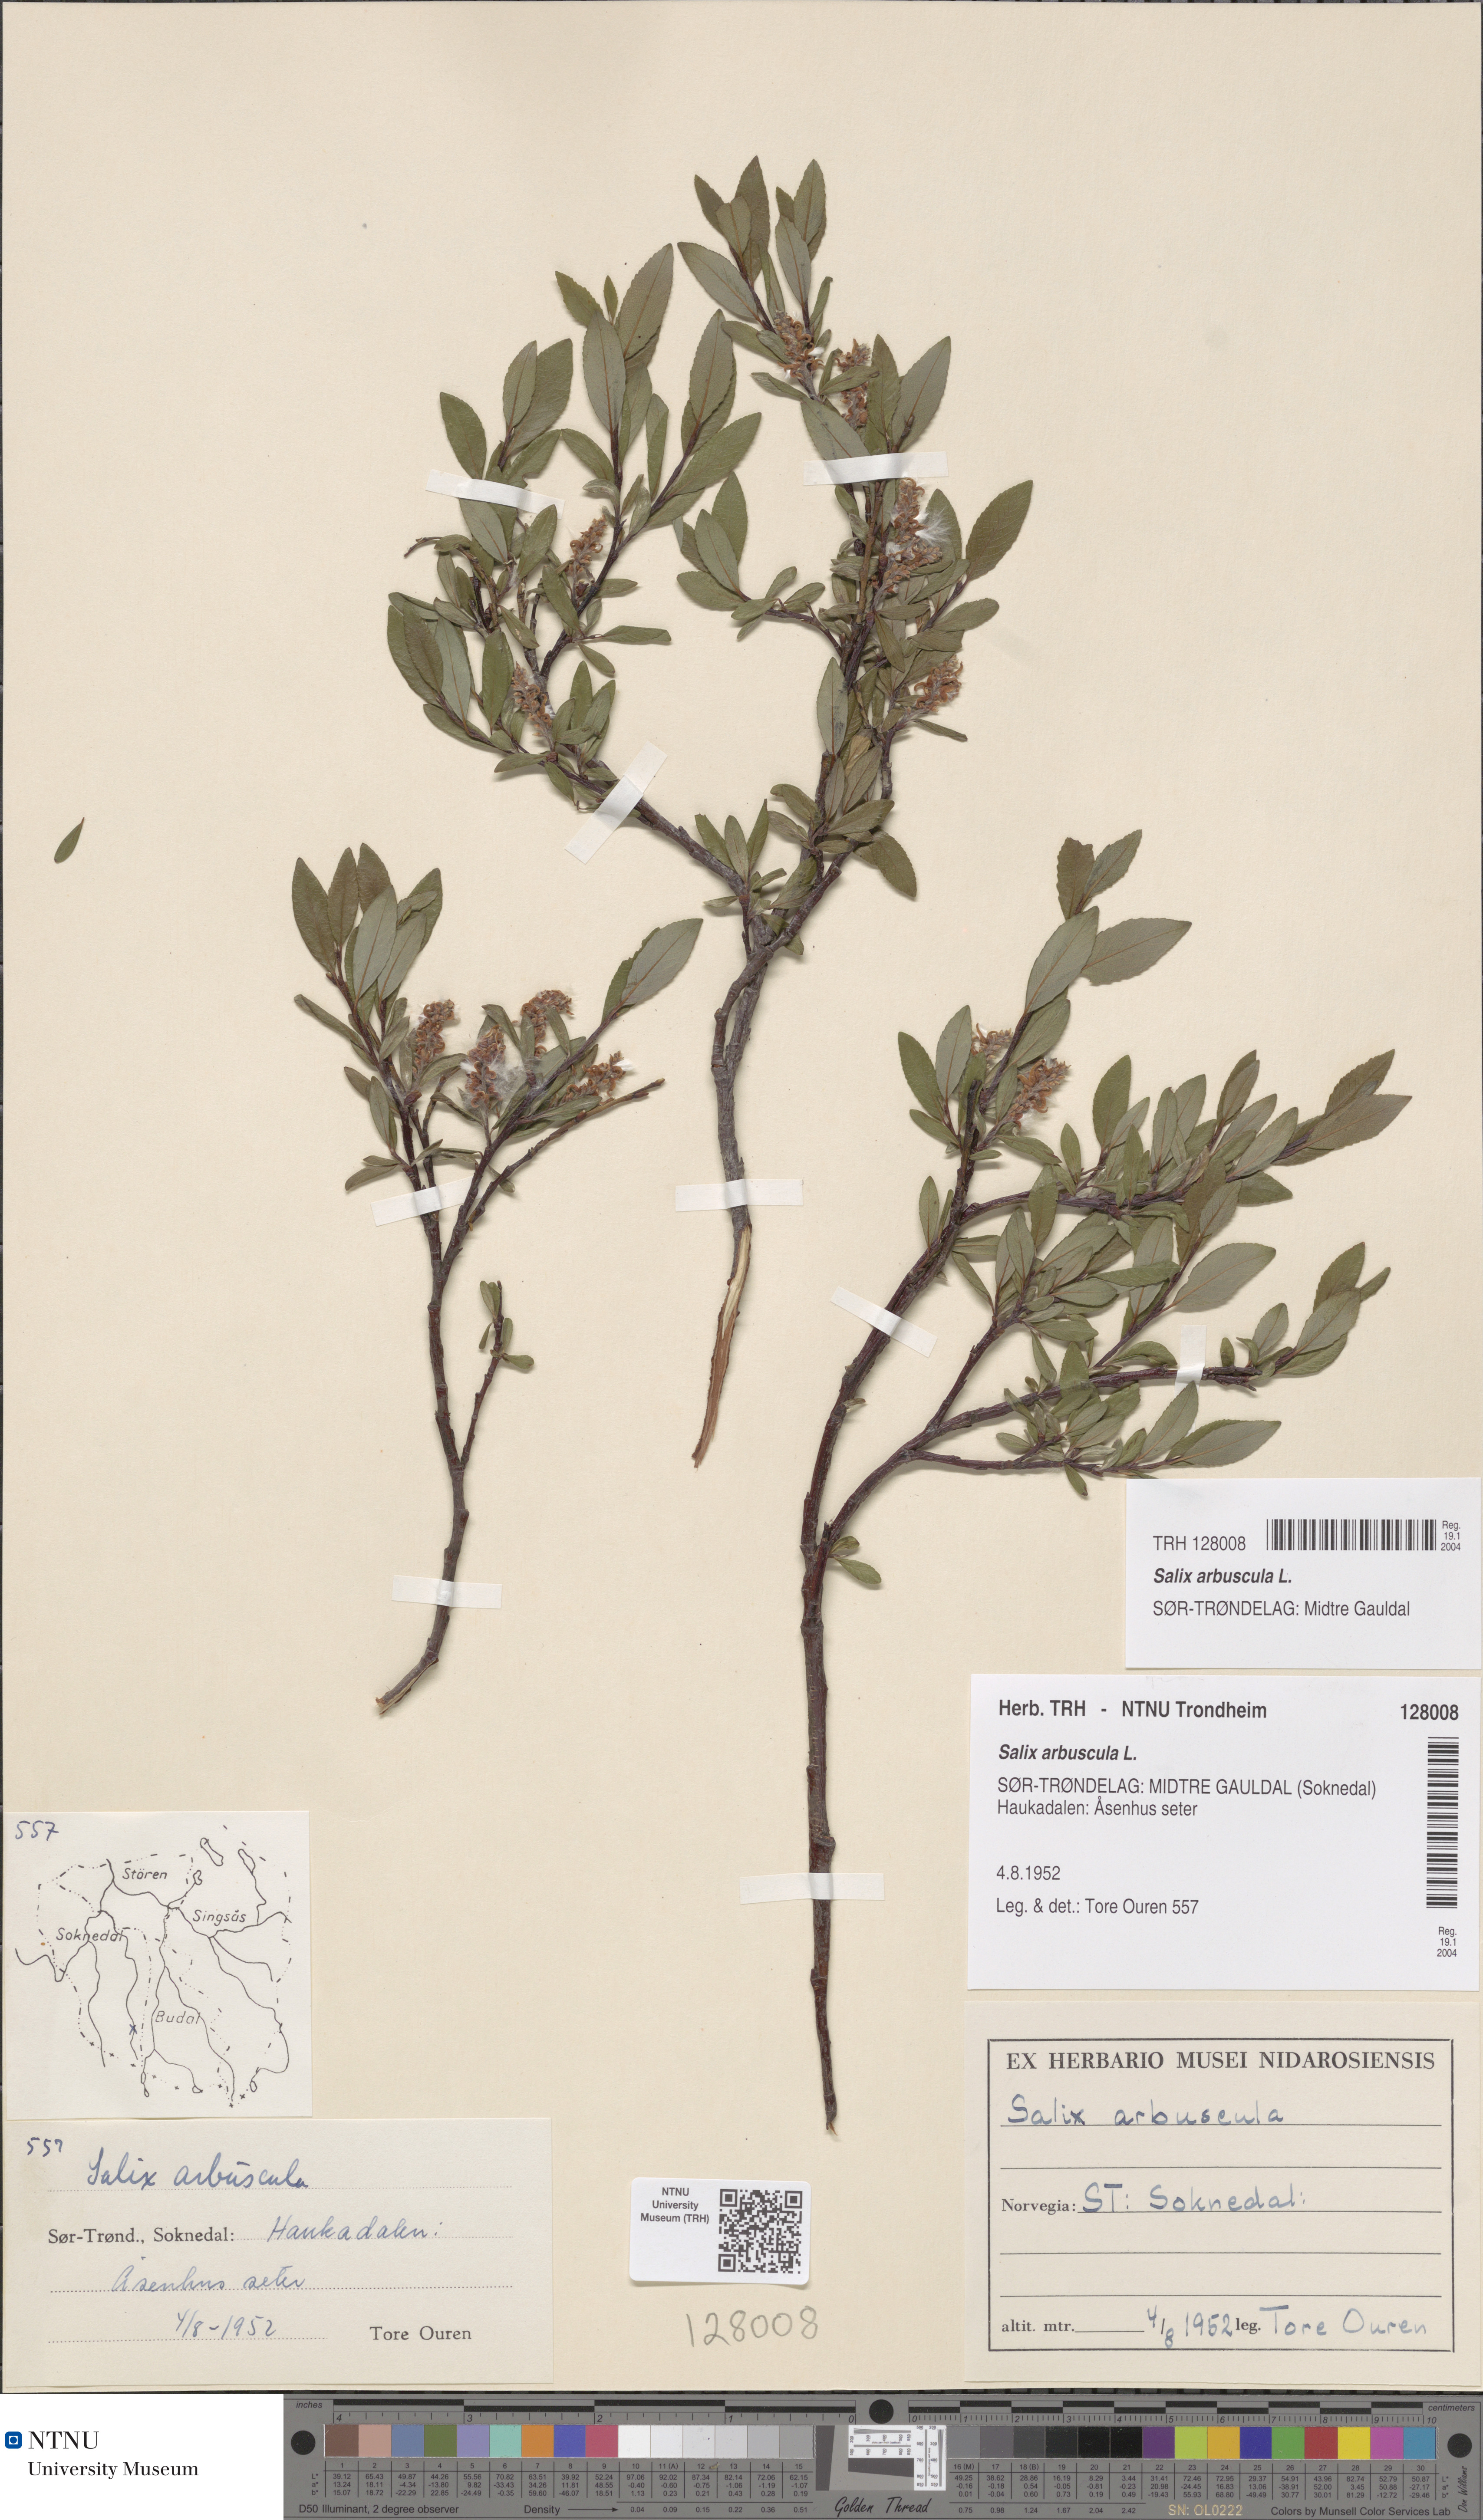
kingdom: Plantae
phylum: Tracheophyta
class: Magnoliopsida
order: Malpighiales
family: Salicaceae
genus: Salix
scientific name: Salix arbuscula
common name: Mountain willow
